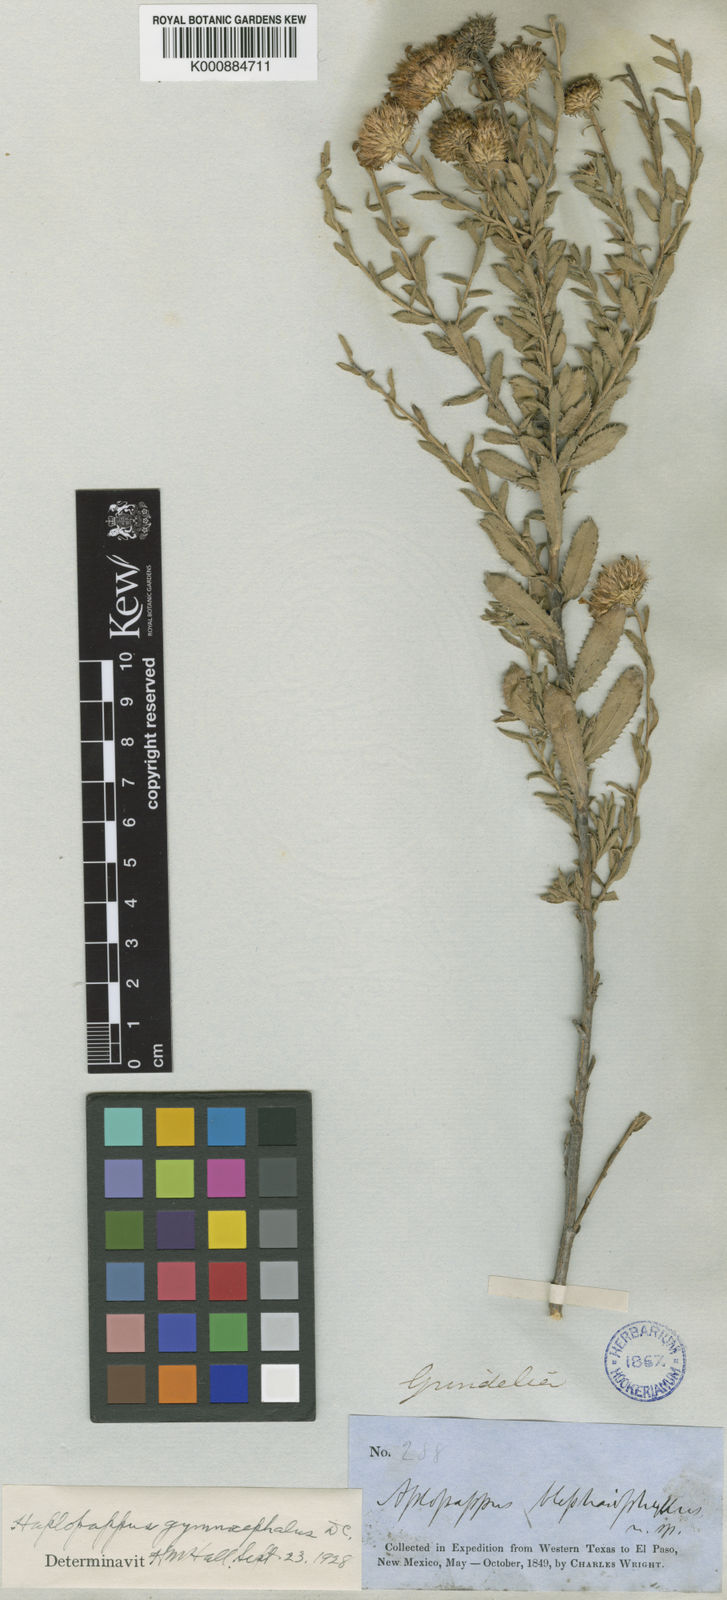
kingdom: Plantae
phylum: Tracheophyta
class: Magnoliopsida
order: Asterales
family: Asteraceae
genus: Xanthisma
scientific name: Xanthisma gymnocephalum
